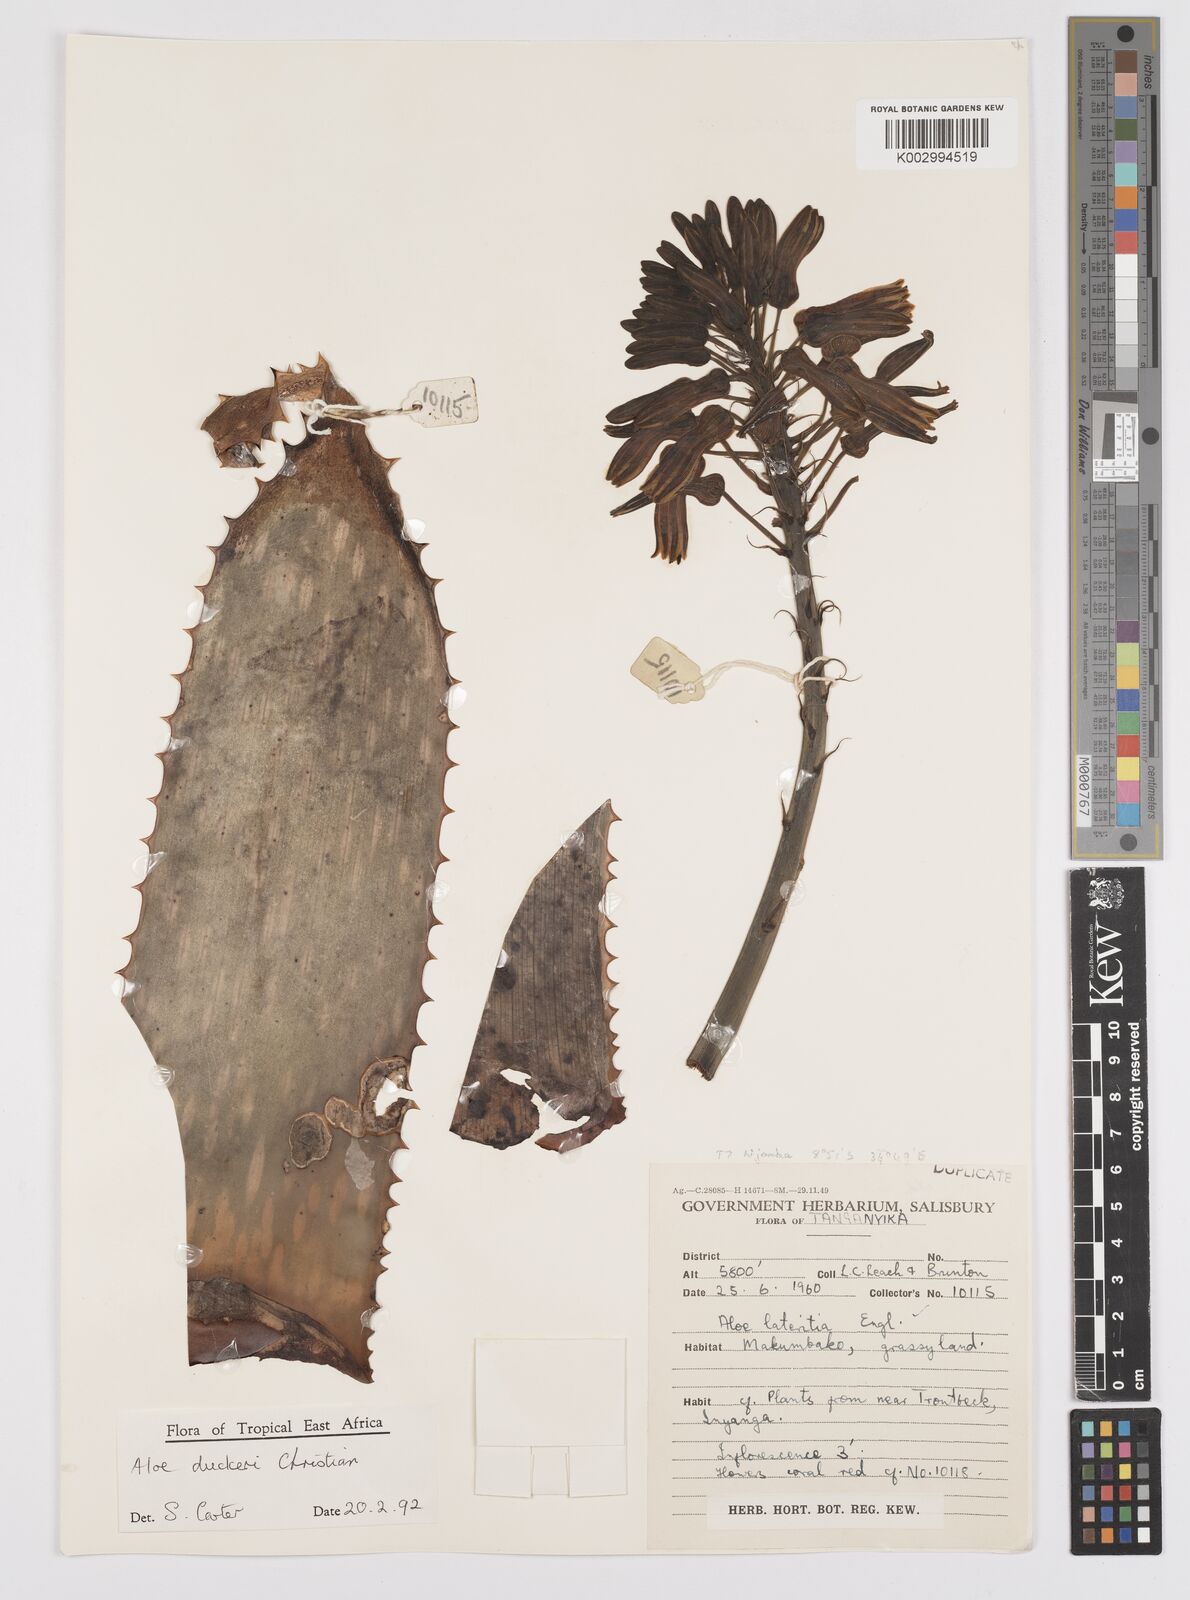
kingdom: Plantae
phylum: Tracheophyta
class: Liliopsida
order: Asparagales
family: Asphodelaceae
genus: Aloe
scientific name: Aloe duckeri
